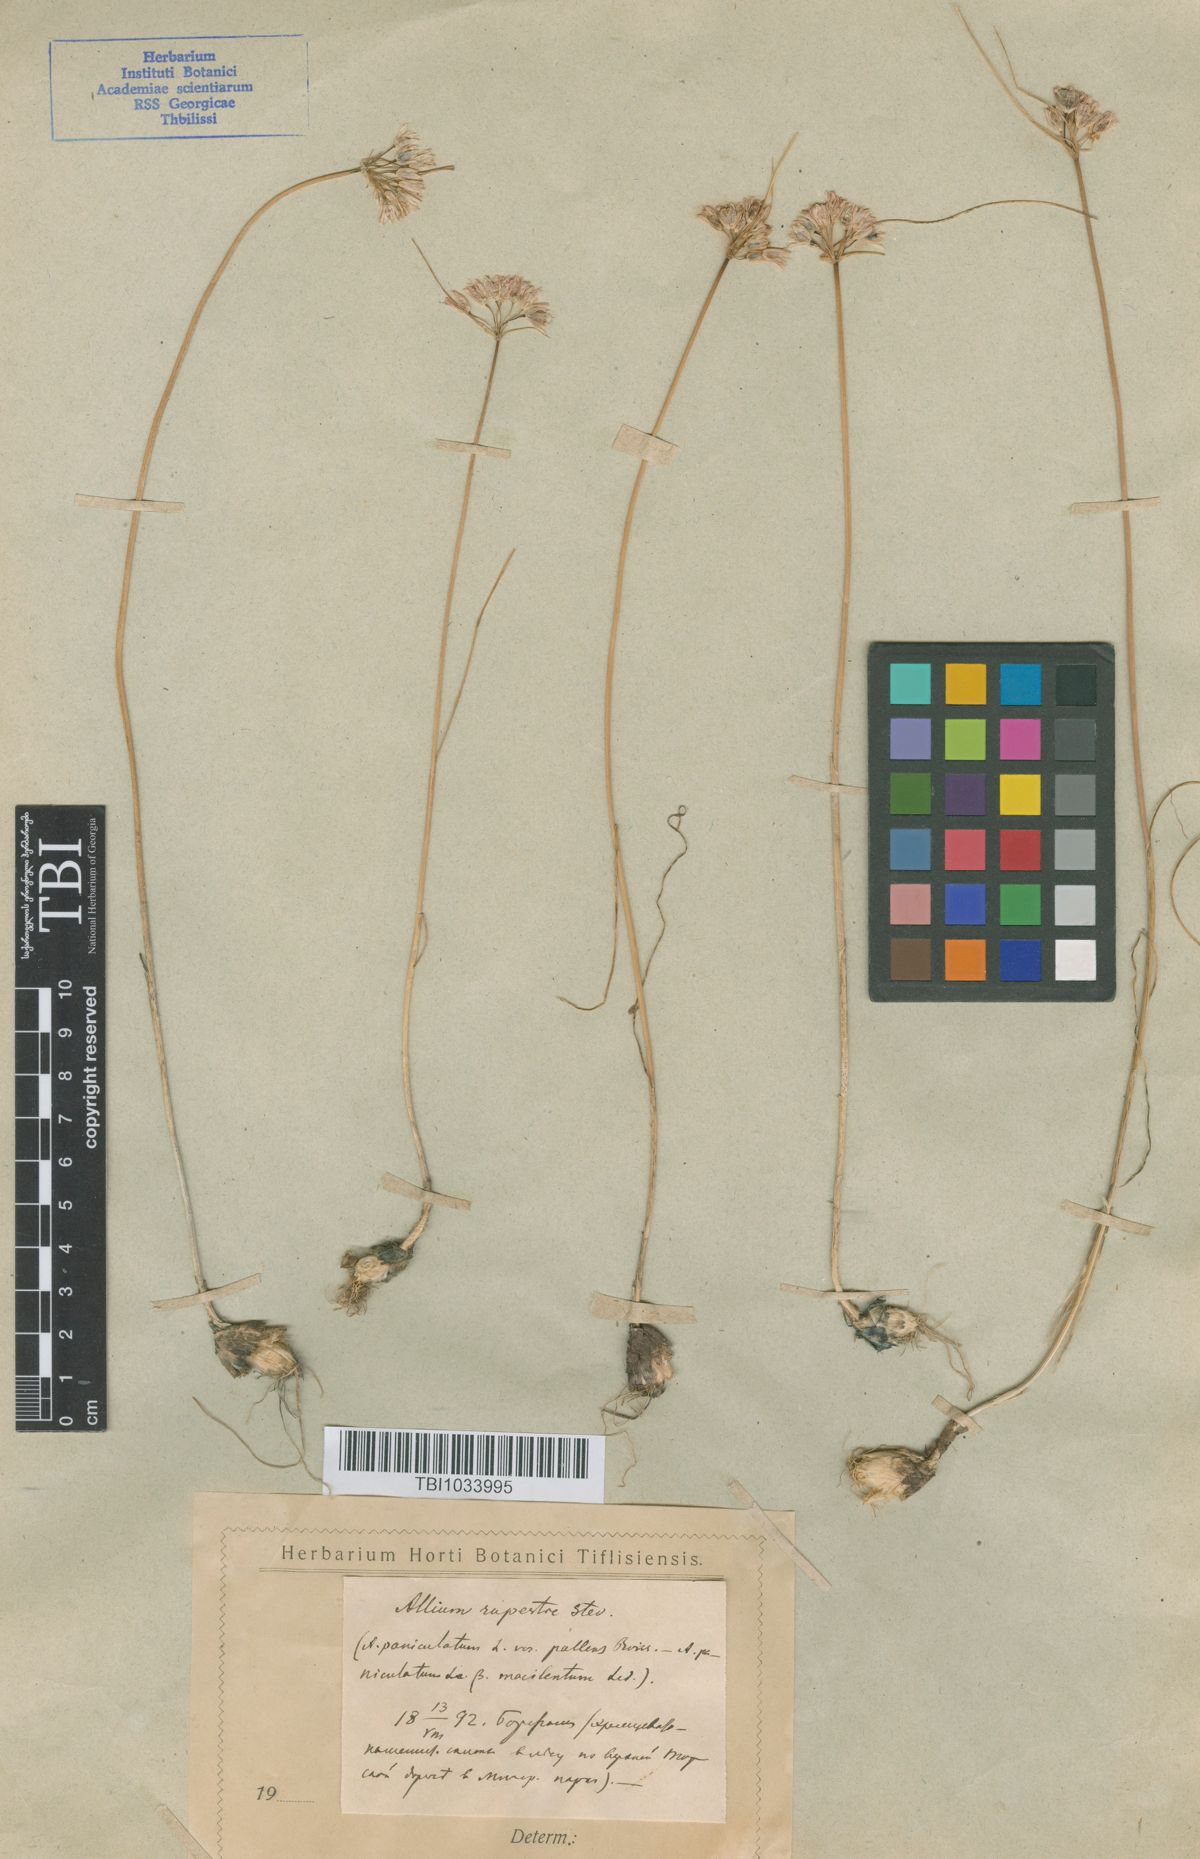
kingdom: Plantae
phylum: Tracheophyta
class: Liliopsida
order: Asparagales
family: Amaryllidaceae
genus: Allium
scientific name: Allium rupestre
